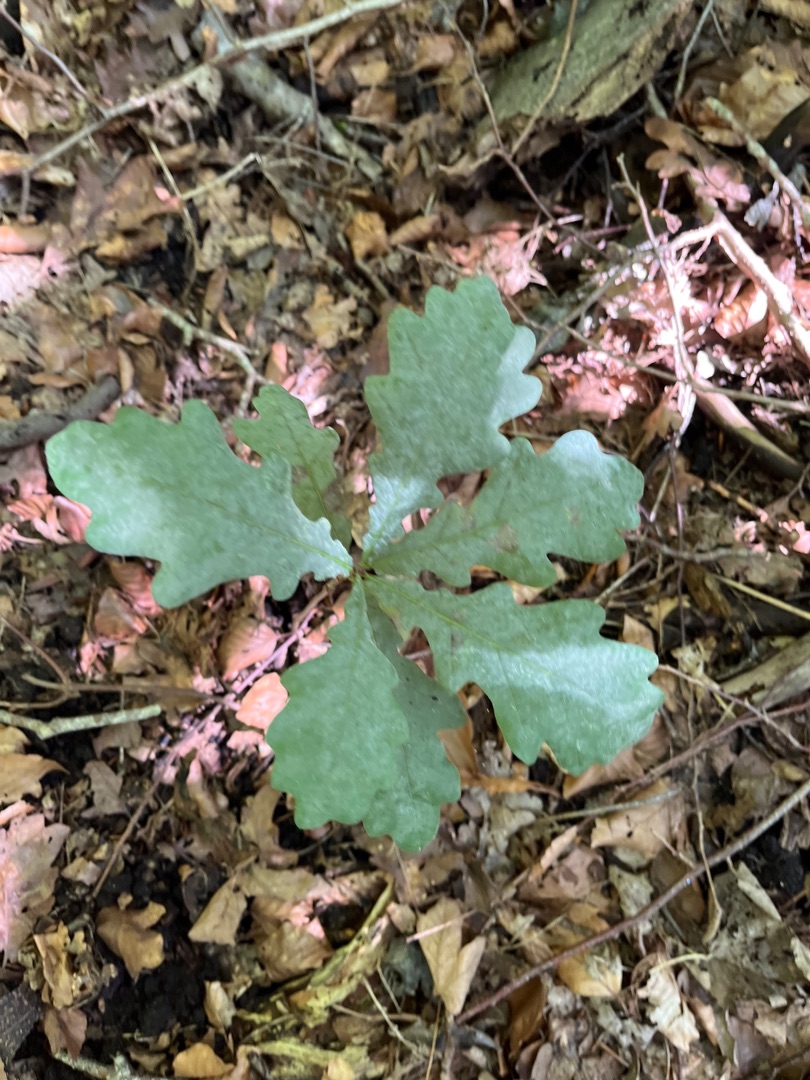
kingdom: Plantae
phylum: Tracheophyta
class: Magnoliopsida
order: Fagales
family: Fagaceae
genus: Quercus
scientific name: Quercus robur
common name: Stilk-eg/almindelig eg
